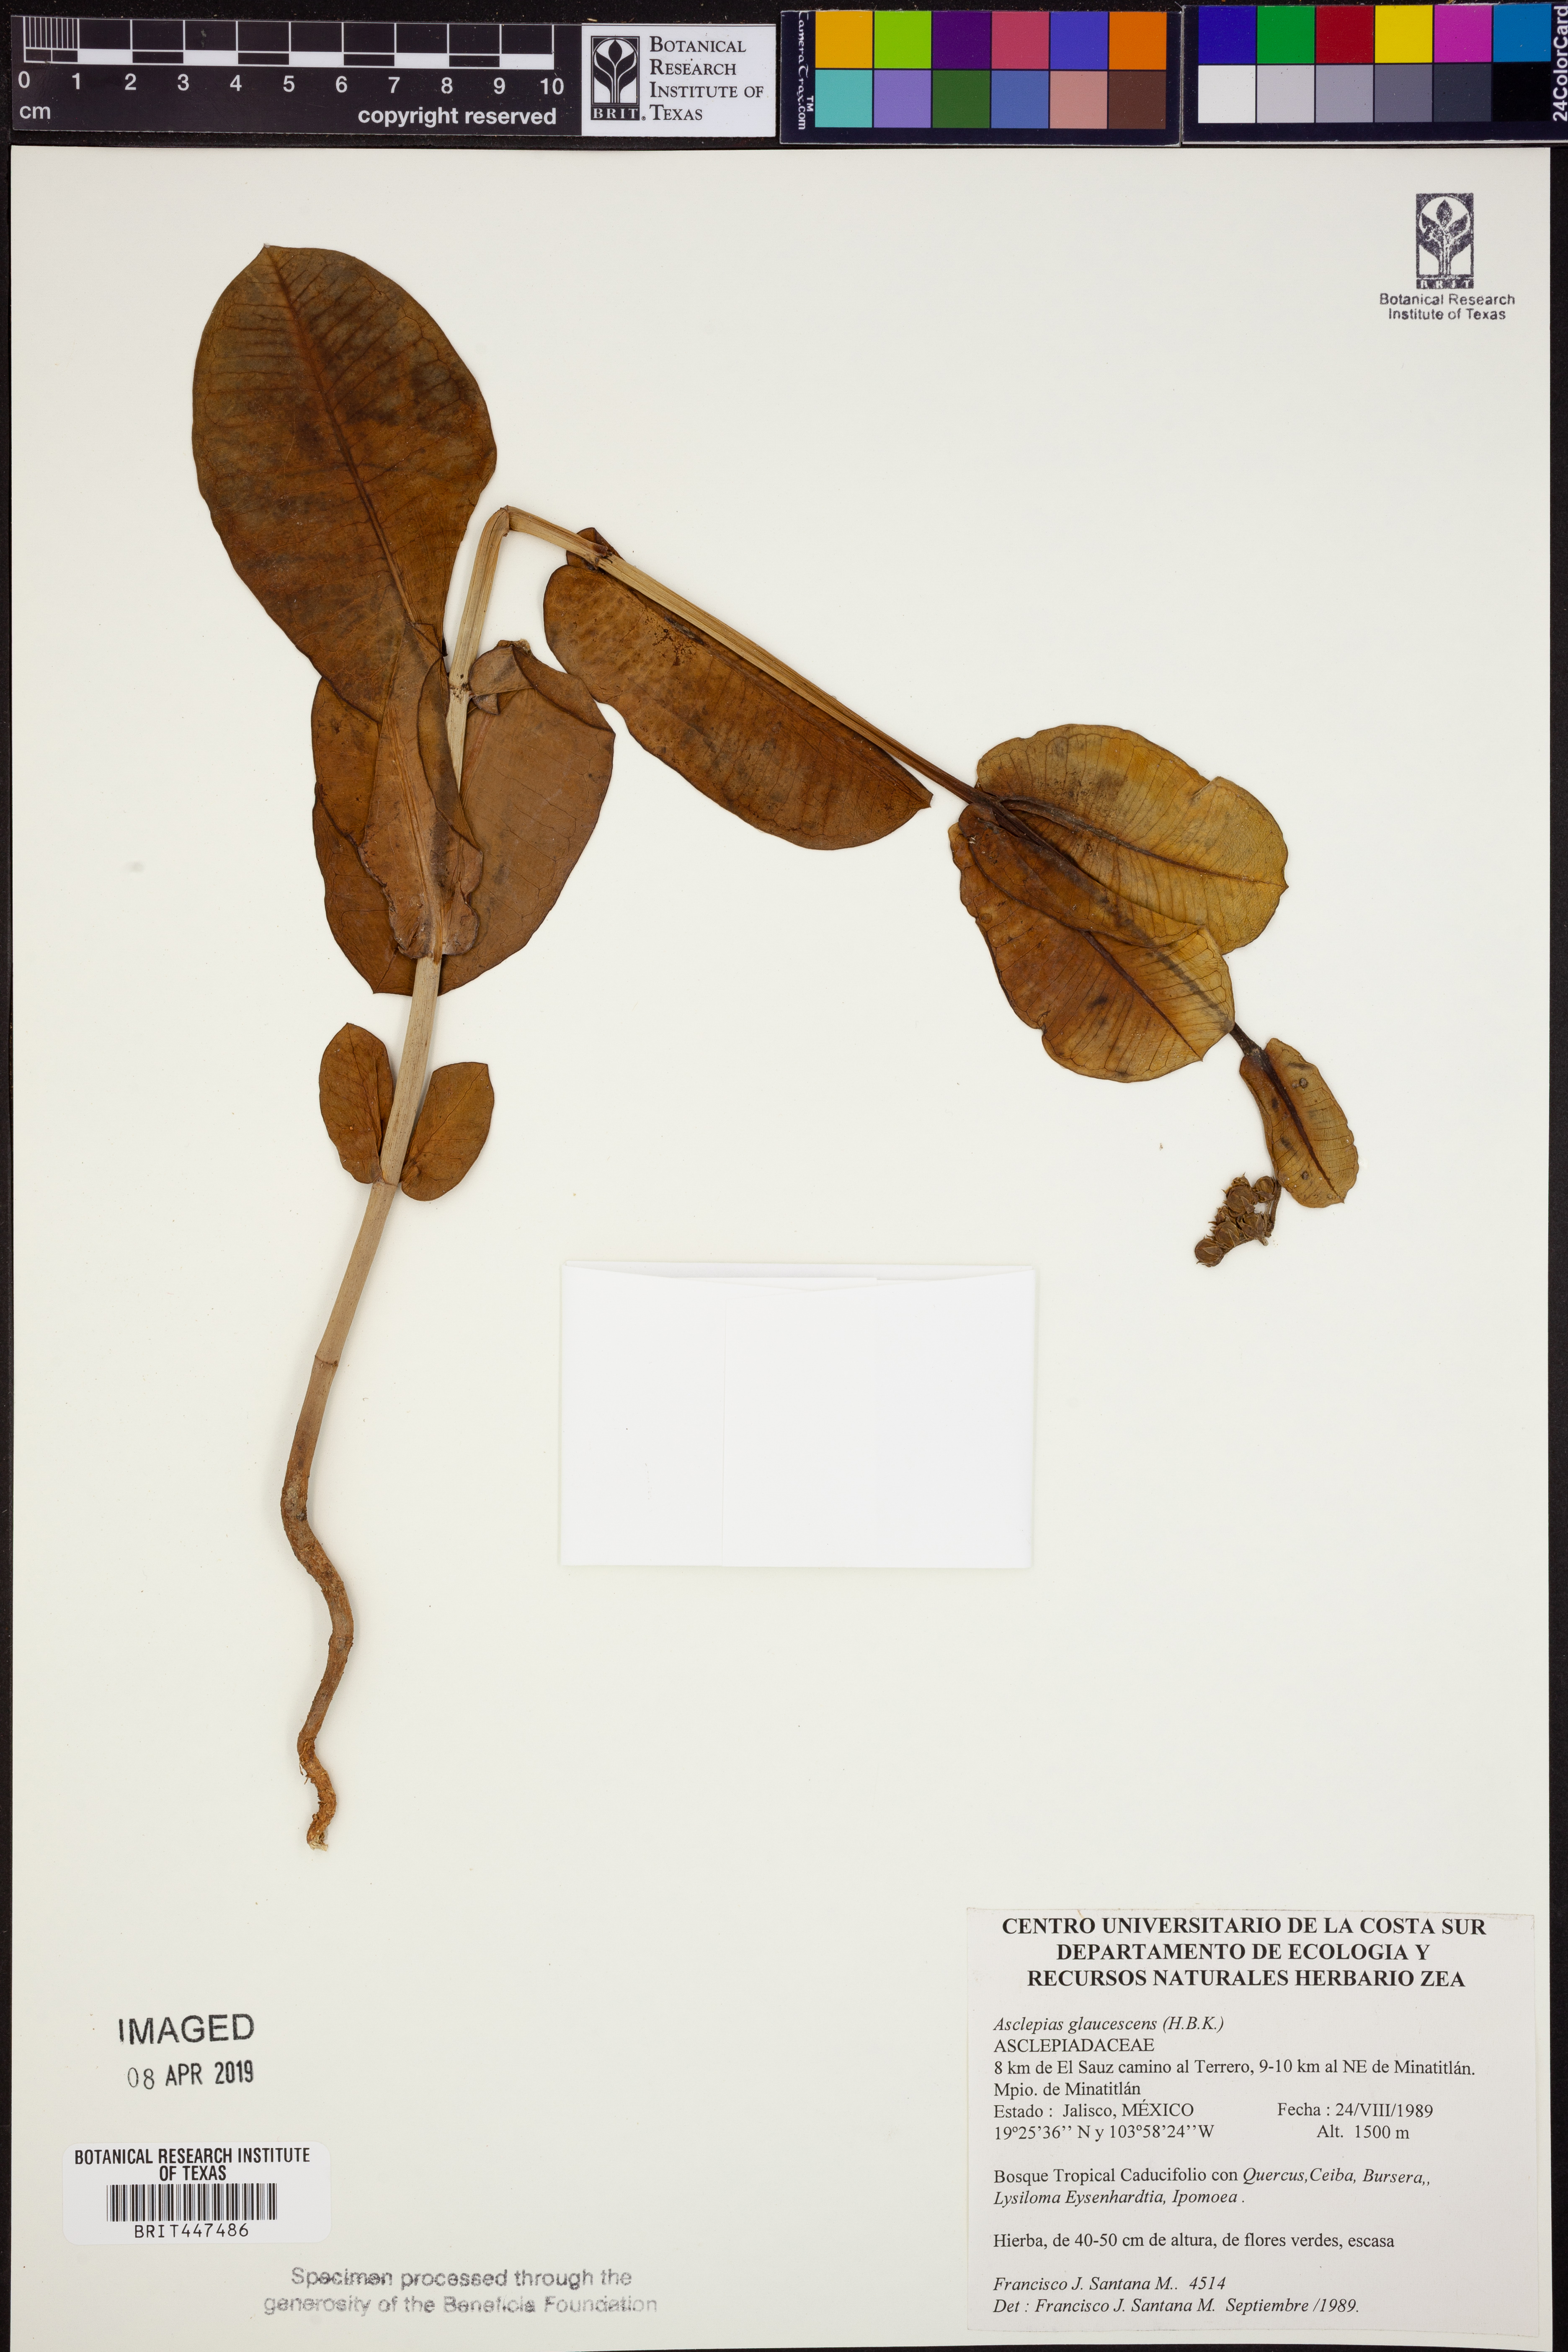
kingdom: Plantae
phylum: Tracheophyta
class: Magnoliopsida
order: Gentianales
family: Apocynaceae
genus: Asclepias
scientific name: Asclepias glaucescens
